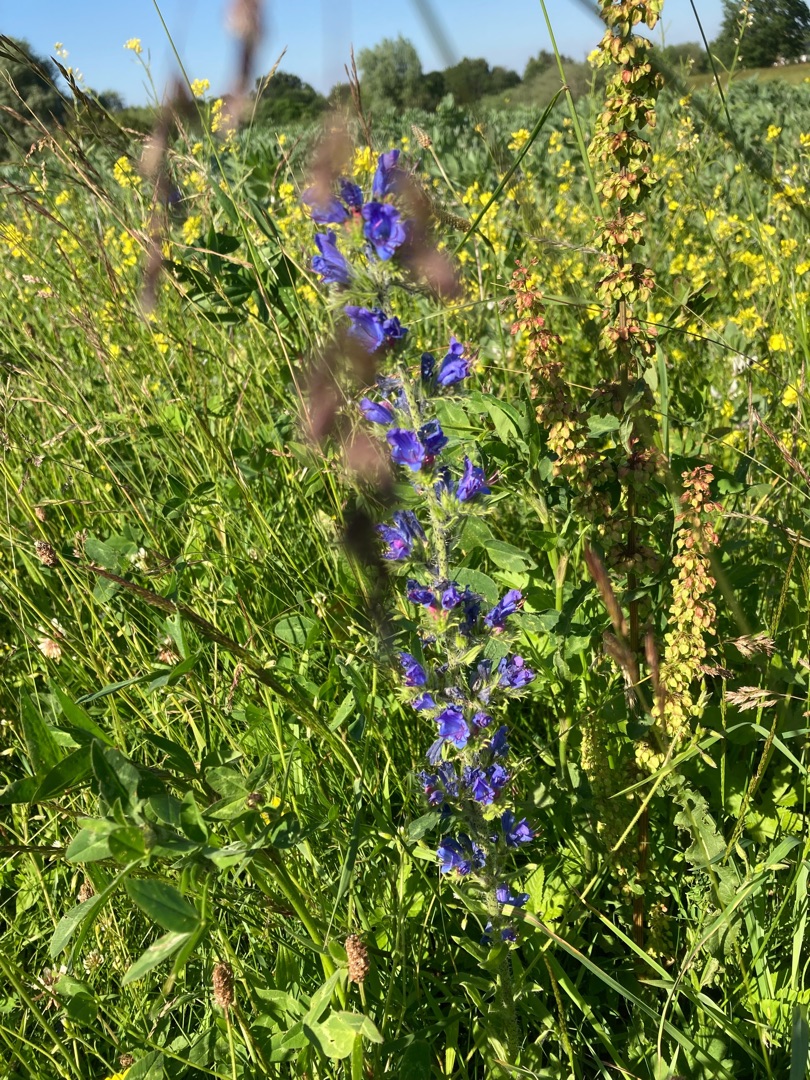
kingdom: Plantae
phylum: Tracheophyta
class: Magnoliopsida
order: Boraginales
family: Boraginaceae
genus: Echium
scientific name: Echium vulgare
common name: Slangehoved
